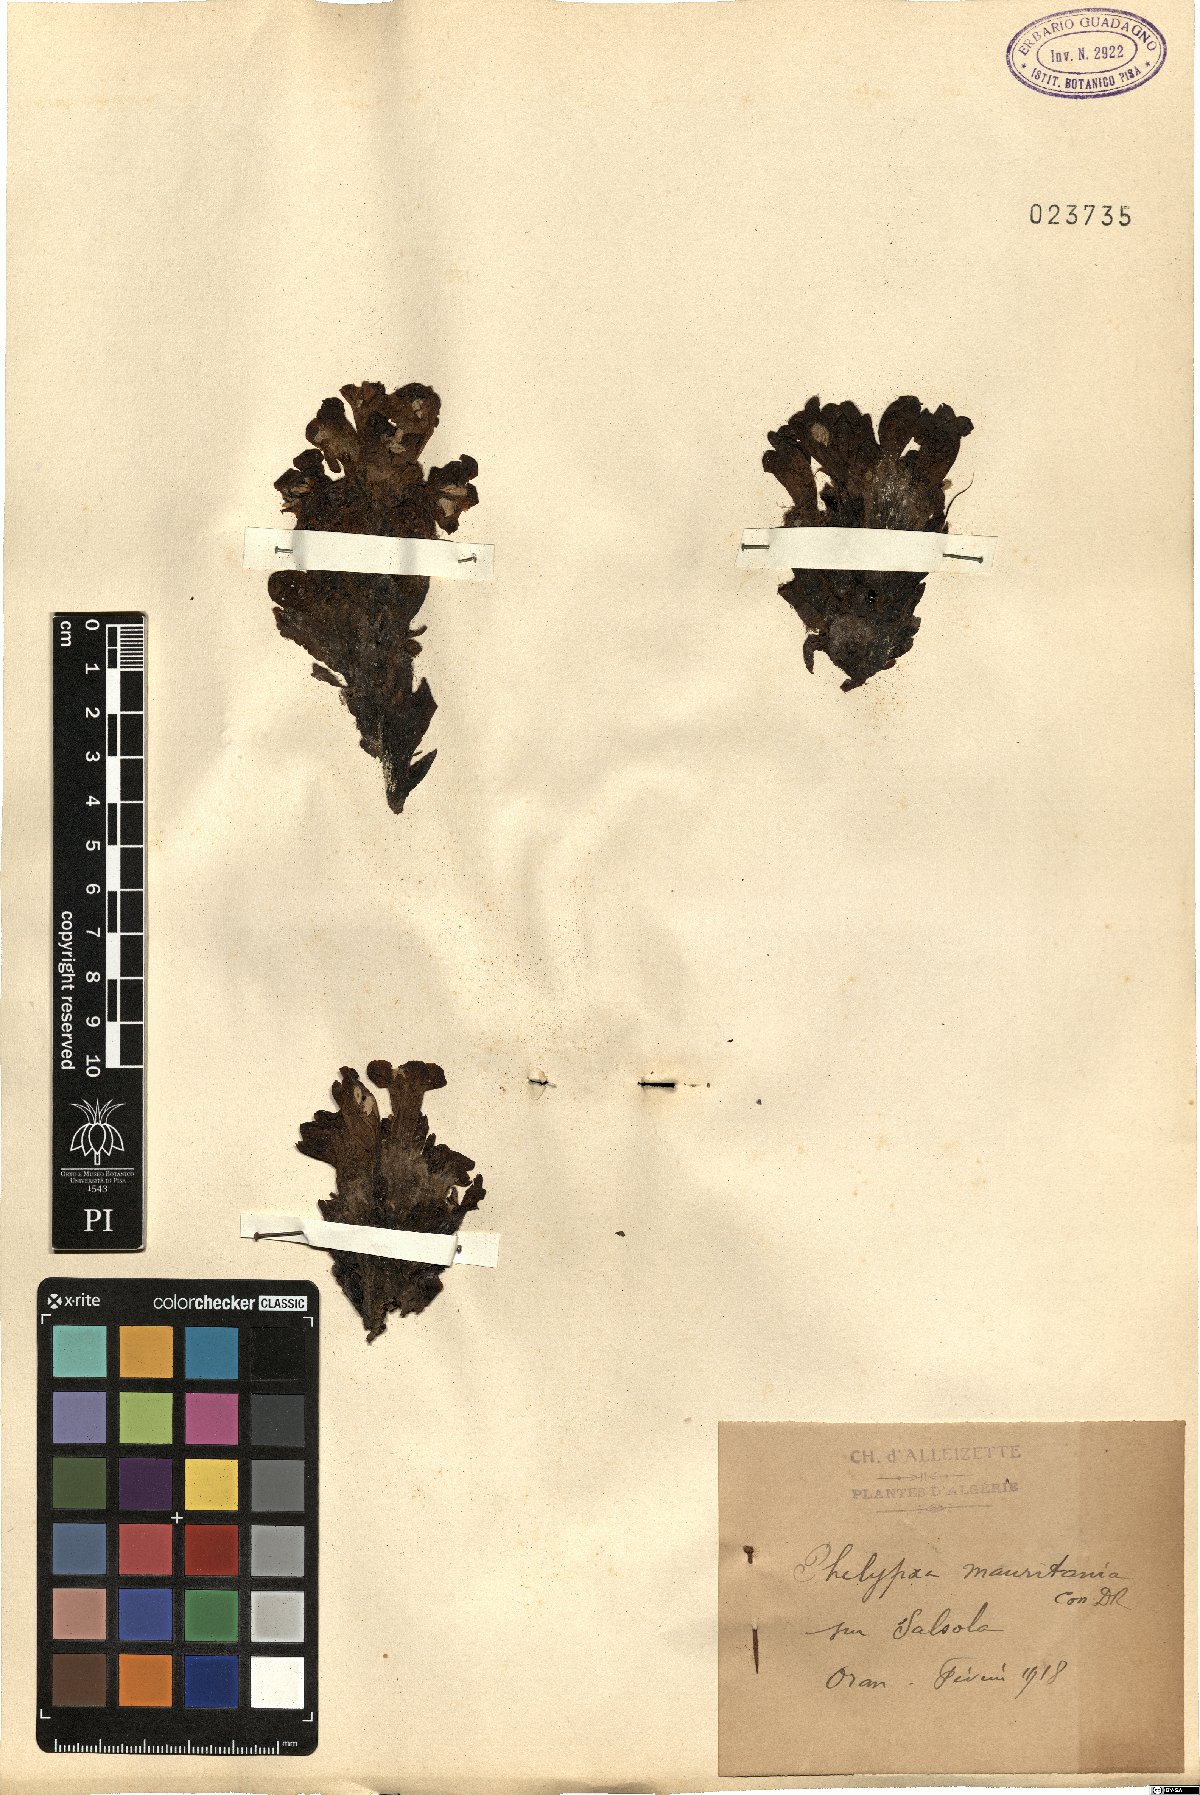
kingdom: Plantae
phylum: Tracheophyta
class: Magnoliopsida
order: Lamiales
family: Orobanchaceae
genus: Cistanche
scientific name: Cistanche mauritanica
